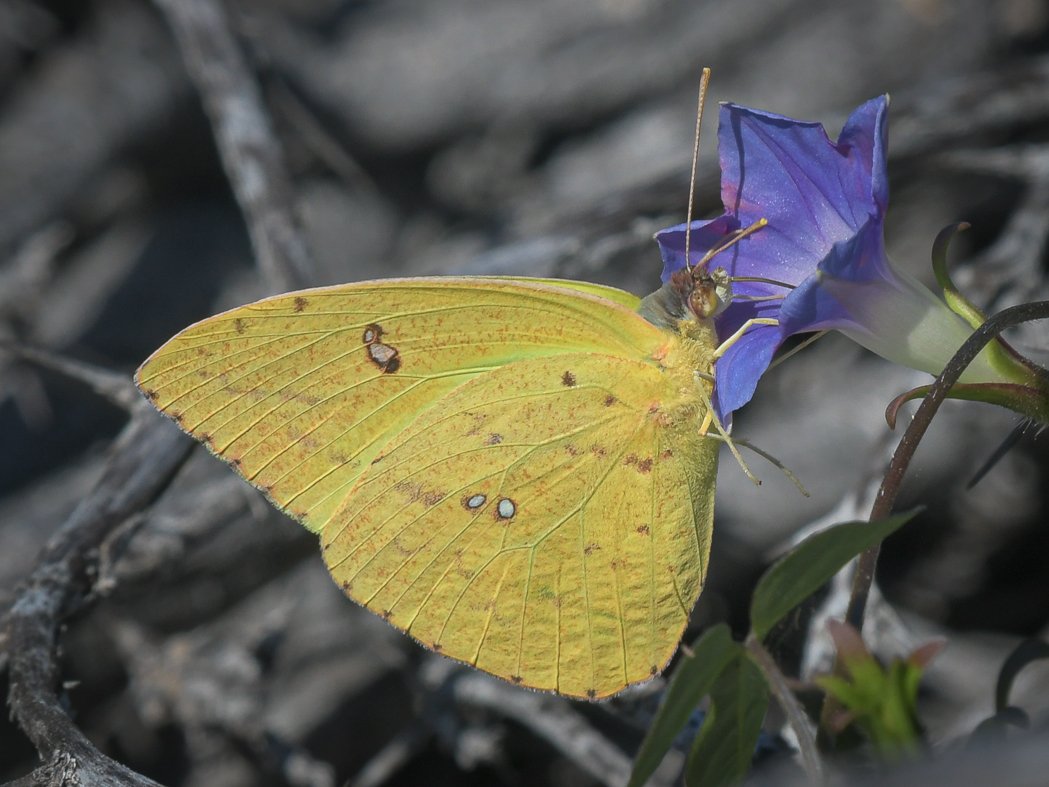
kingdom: Animalia
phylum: Arthropoda
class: Insecta
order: Lepidoptera
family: Pieridae
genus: Phoebis
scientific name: Phoebis sennae
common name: Cloudless Sulphur
